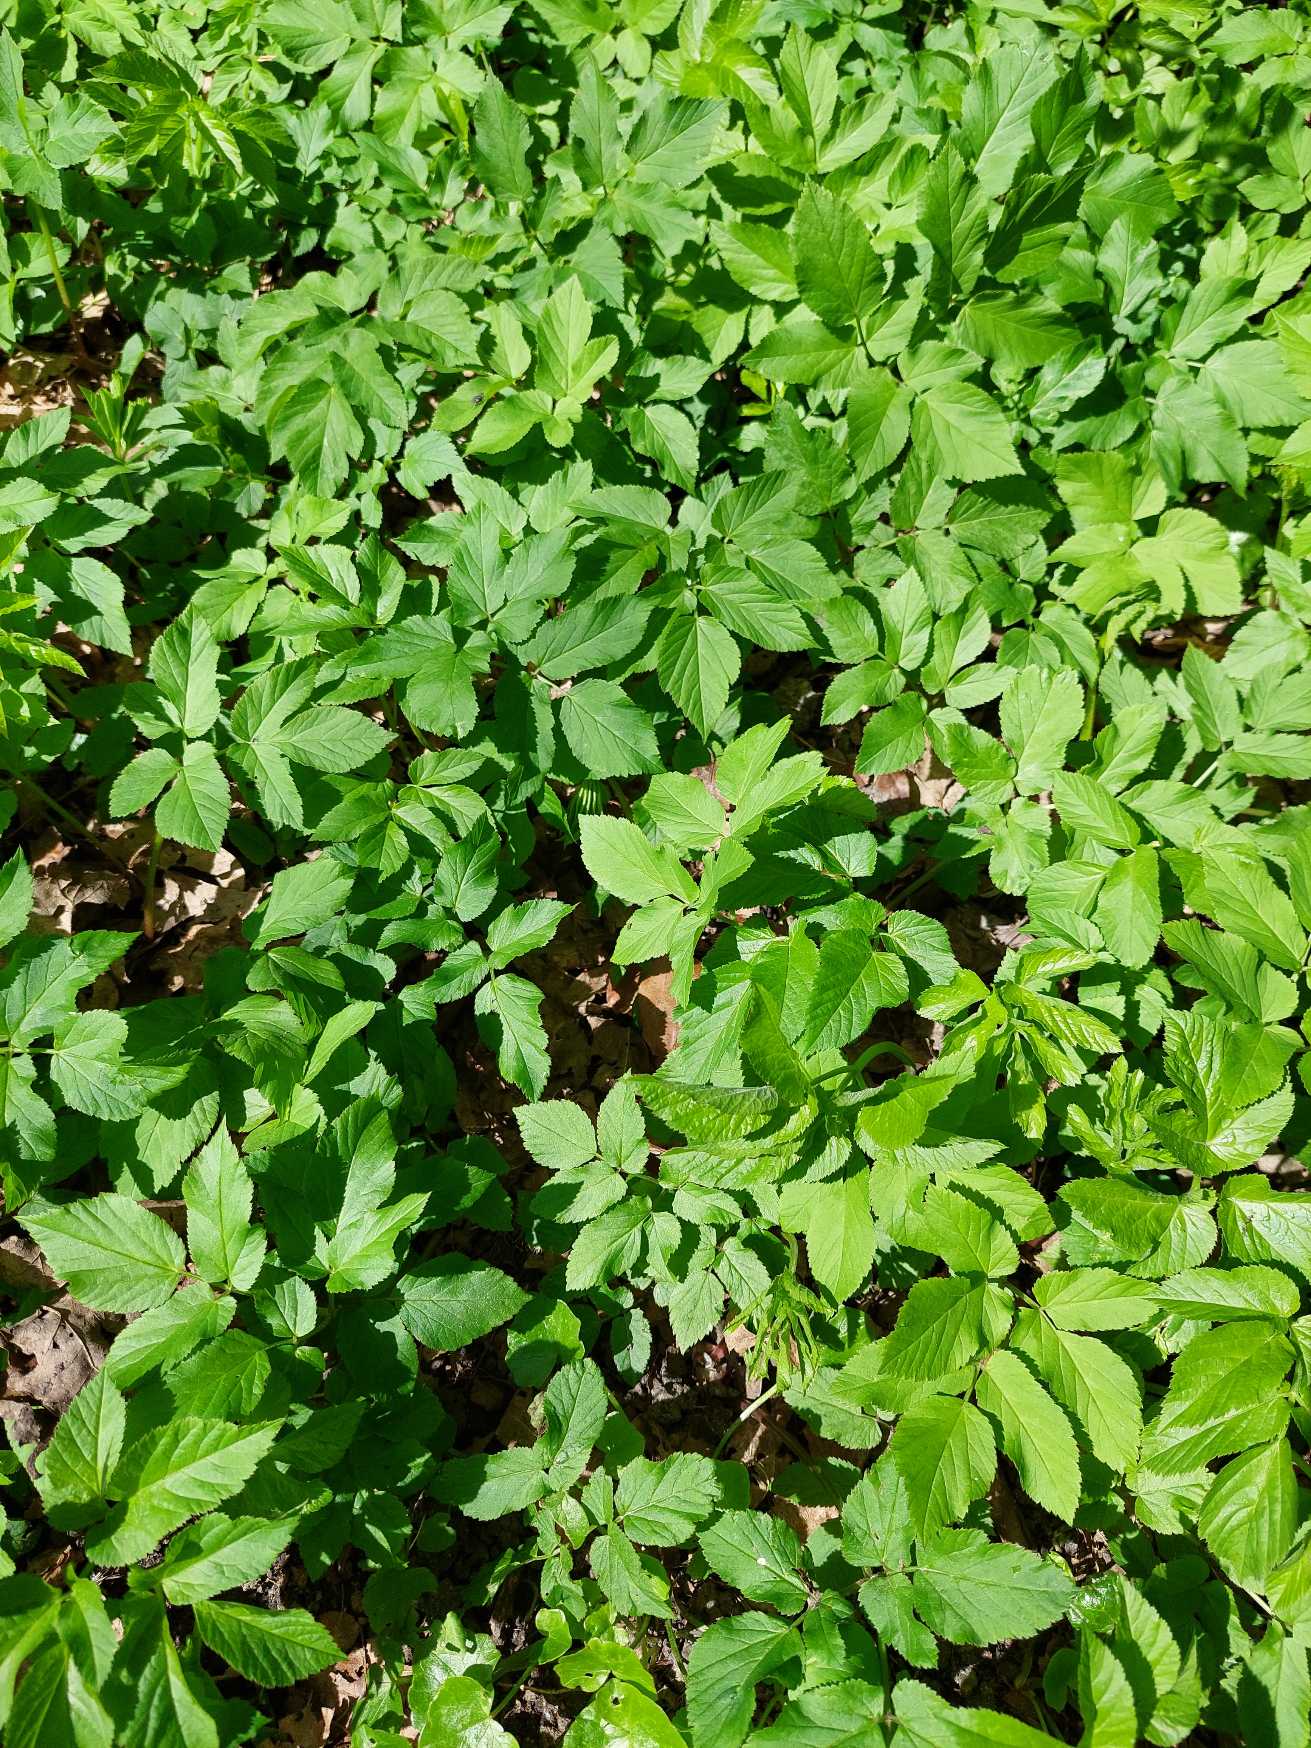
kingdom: Plantae
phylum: Tracheophyta
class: Magnoliopsida
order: Apiales
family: Apiaceae
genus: Aegopodium
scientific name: Aegopodium podagraria
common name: Skvalderkål
